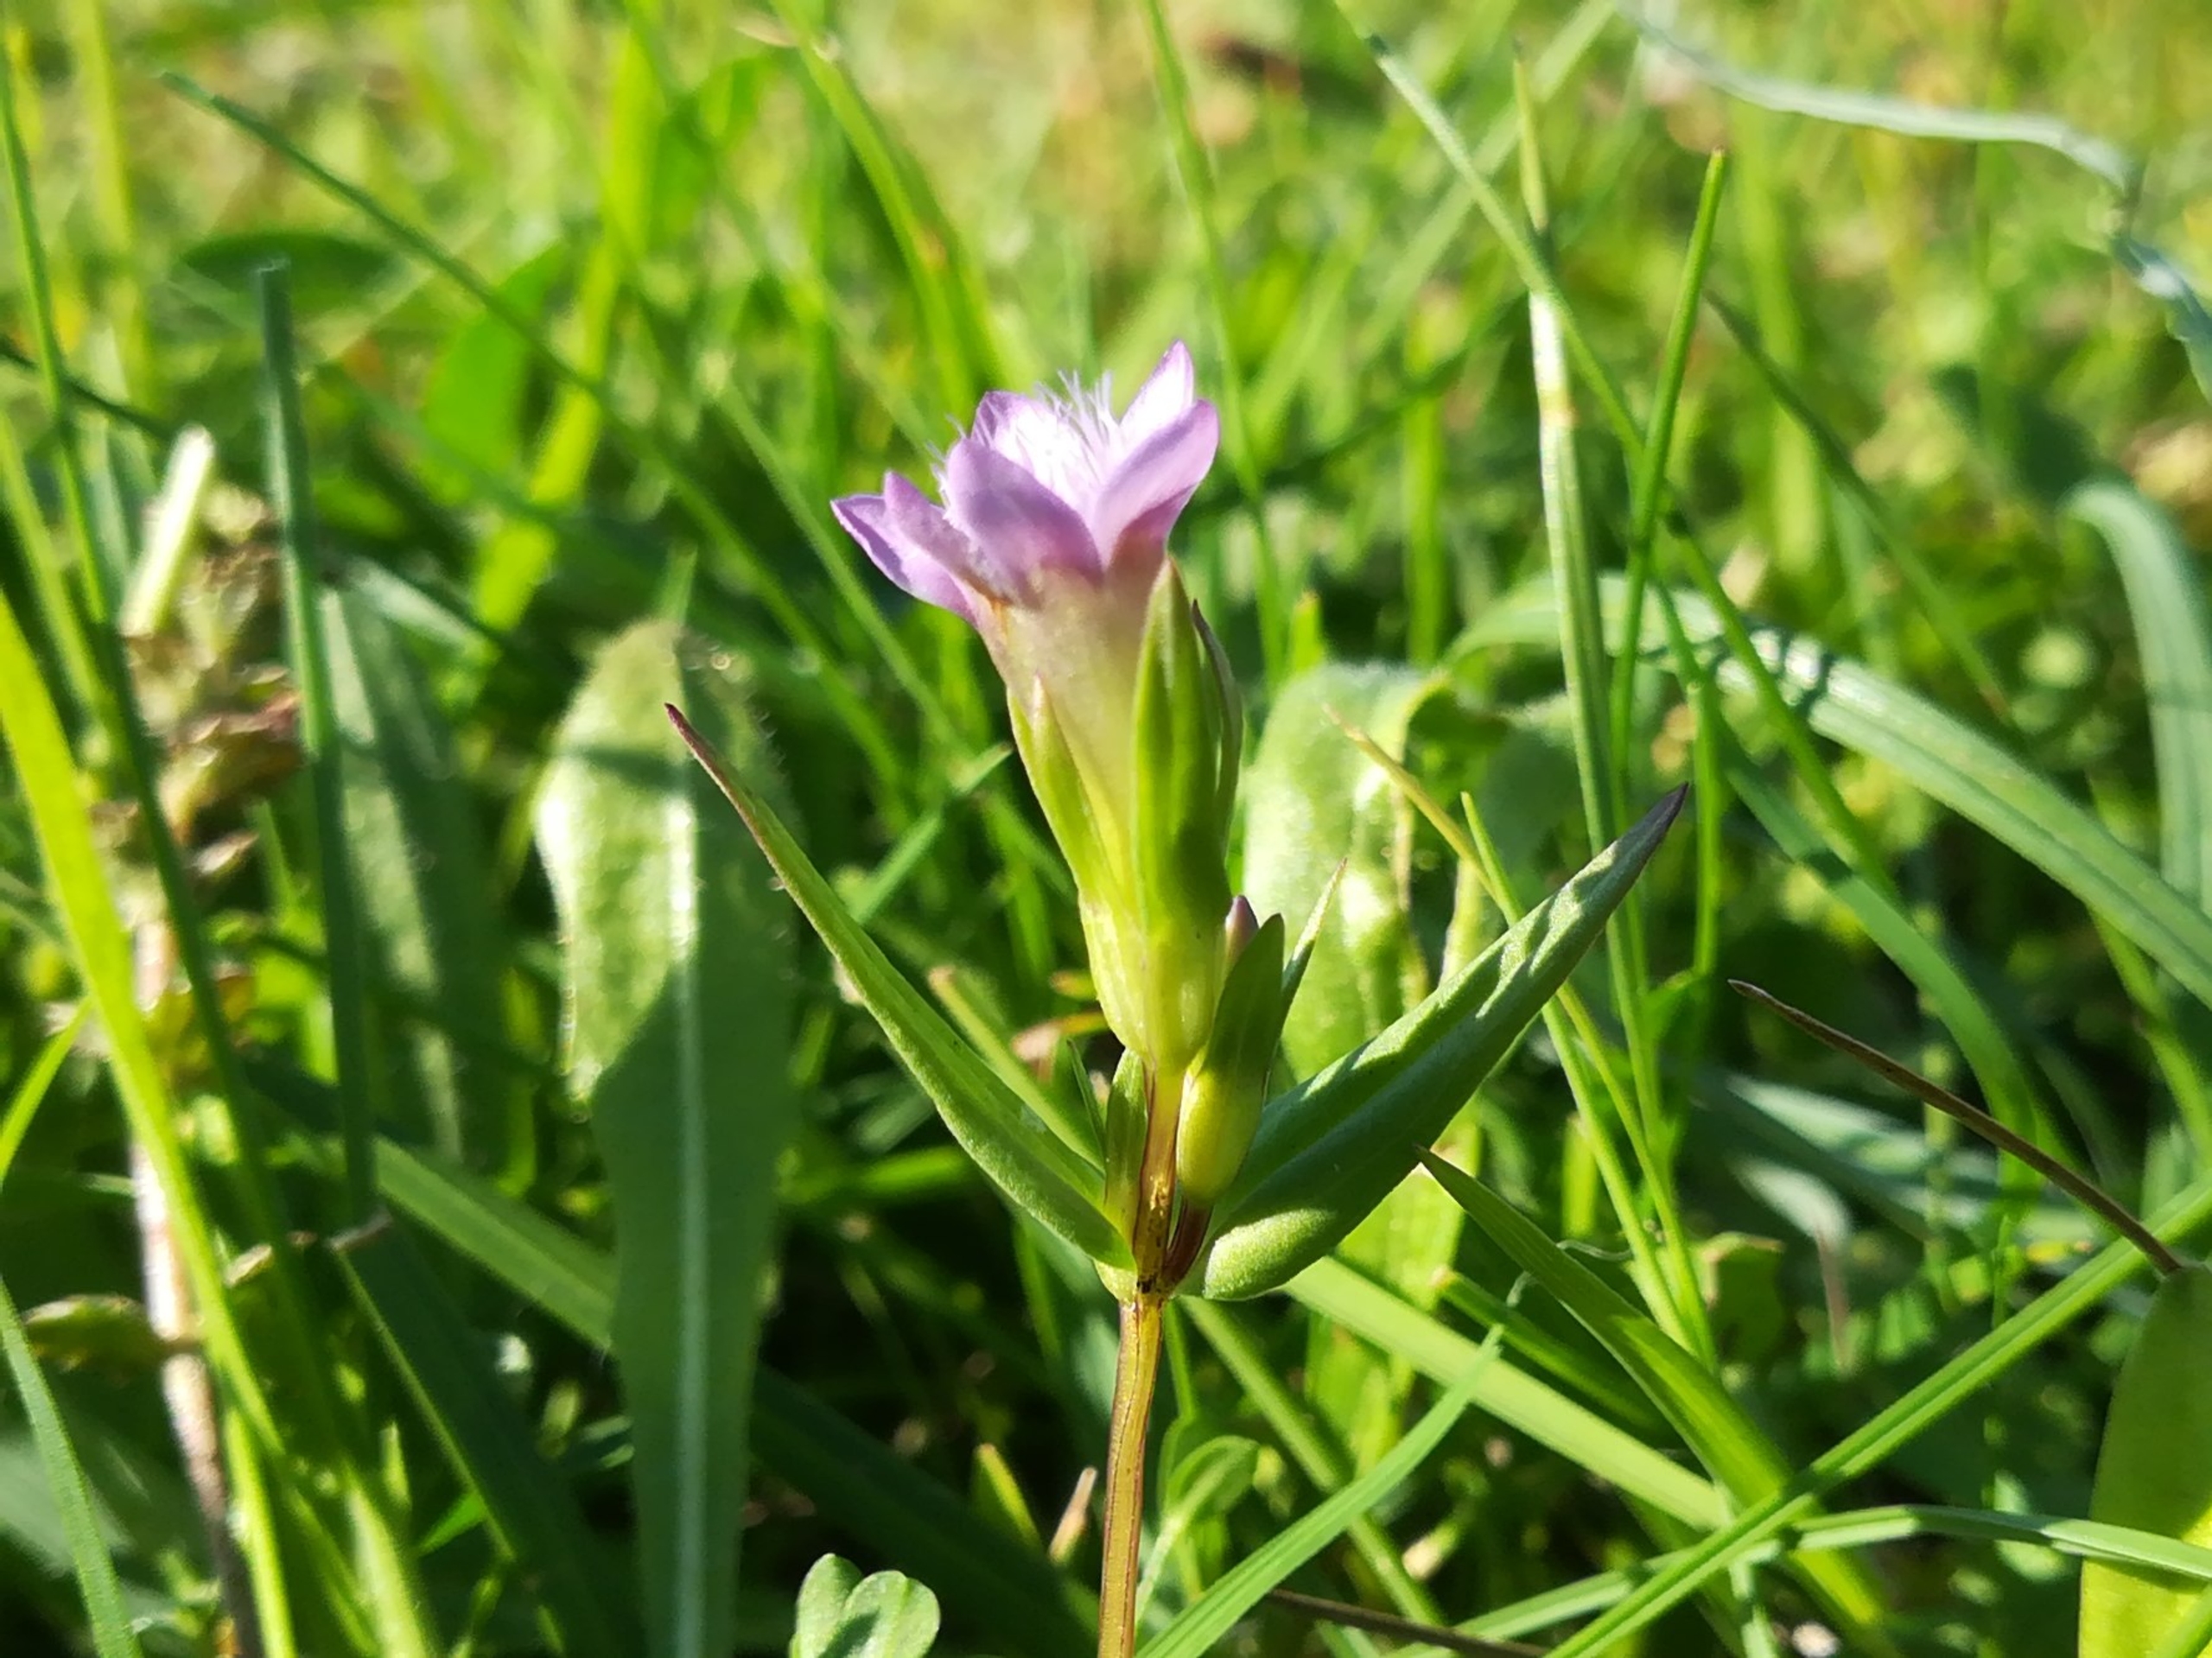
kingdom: Plantae
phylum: Tracheophyta
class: Magnoliopsida
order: Gentianales
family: Gentianaceae
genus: Gentianella
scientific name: Gentianella uliginosa
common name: Eng-ensian
